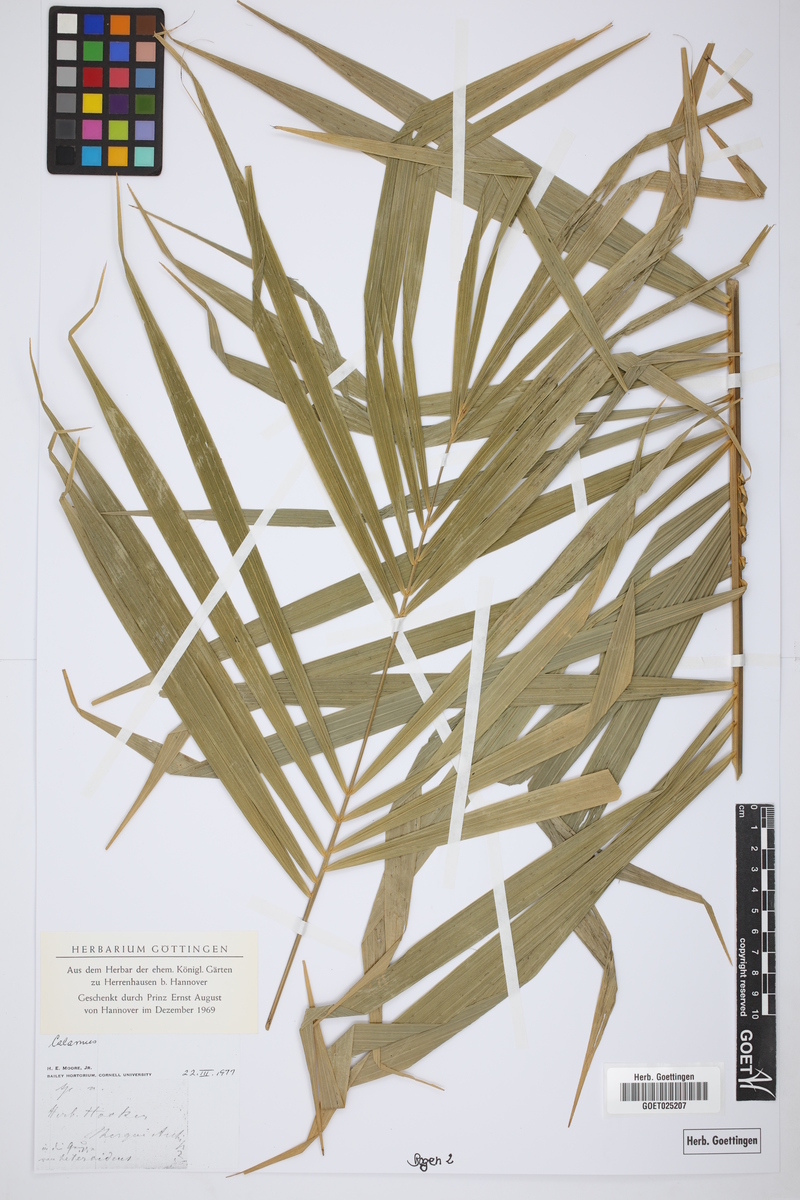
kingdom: Plantae
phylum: Tracheophyta
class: Liliopsida
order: Arecales
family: Arecaceae
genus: Calamus
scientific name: Calamus
